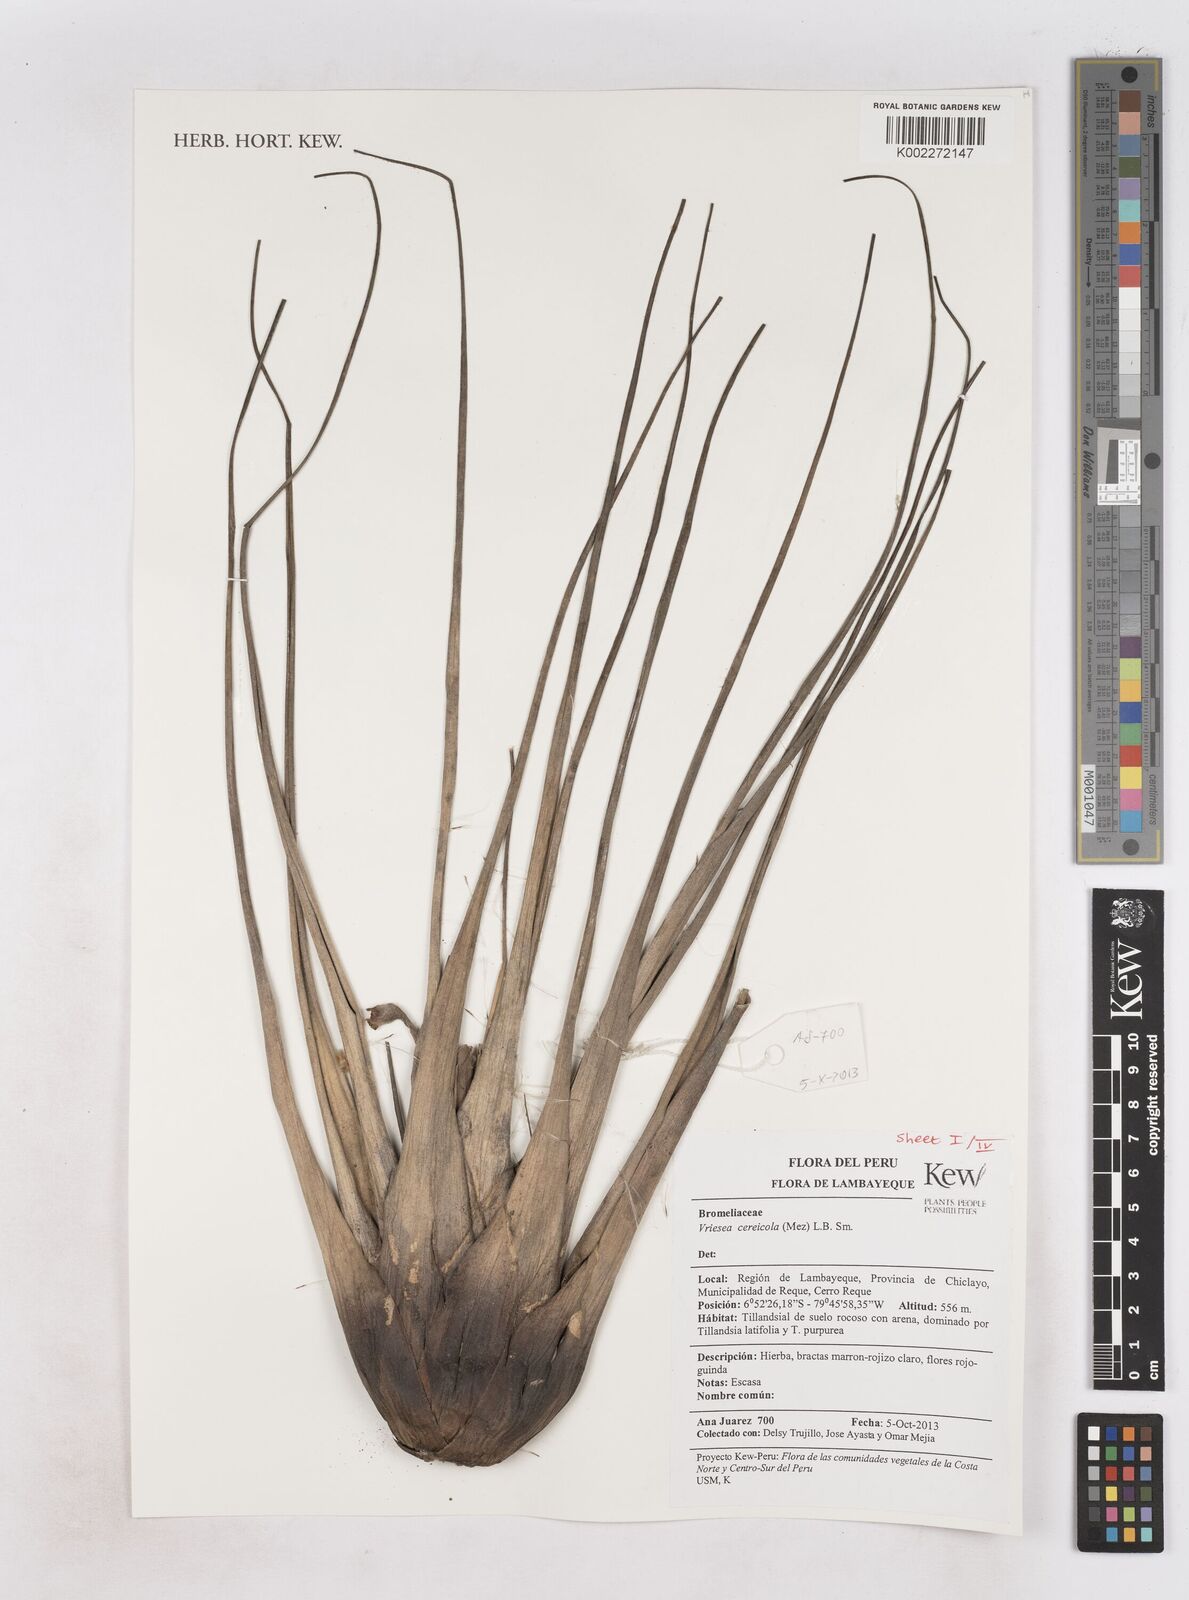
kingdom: Plantae
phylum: Tracheophyta
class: Liliopsida
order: Poales
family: Bromeliaceae
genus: Tillandsia
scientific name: Tillandsia barclayana
